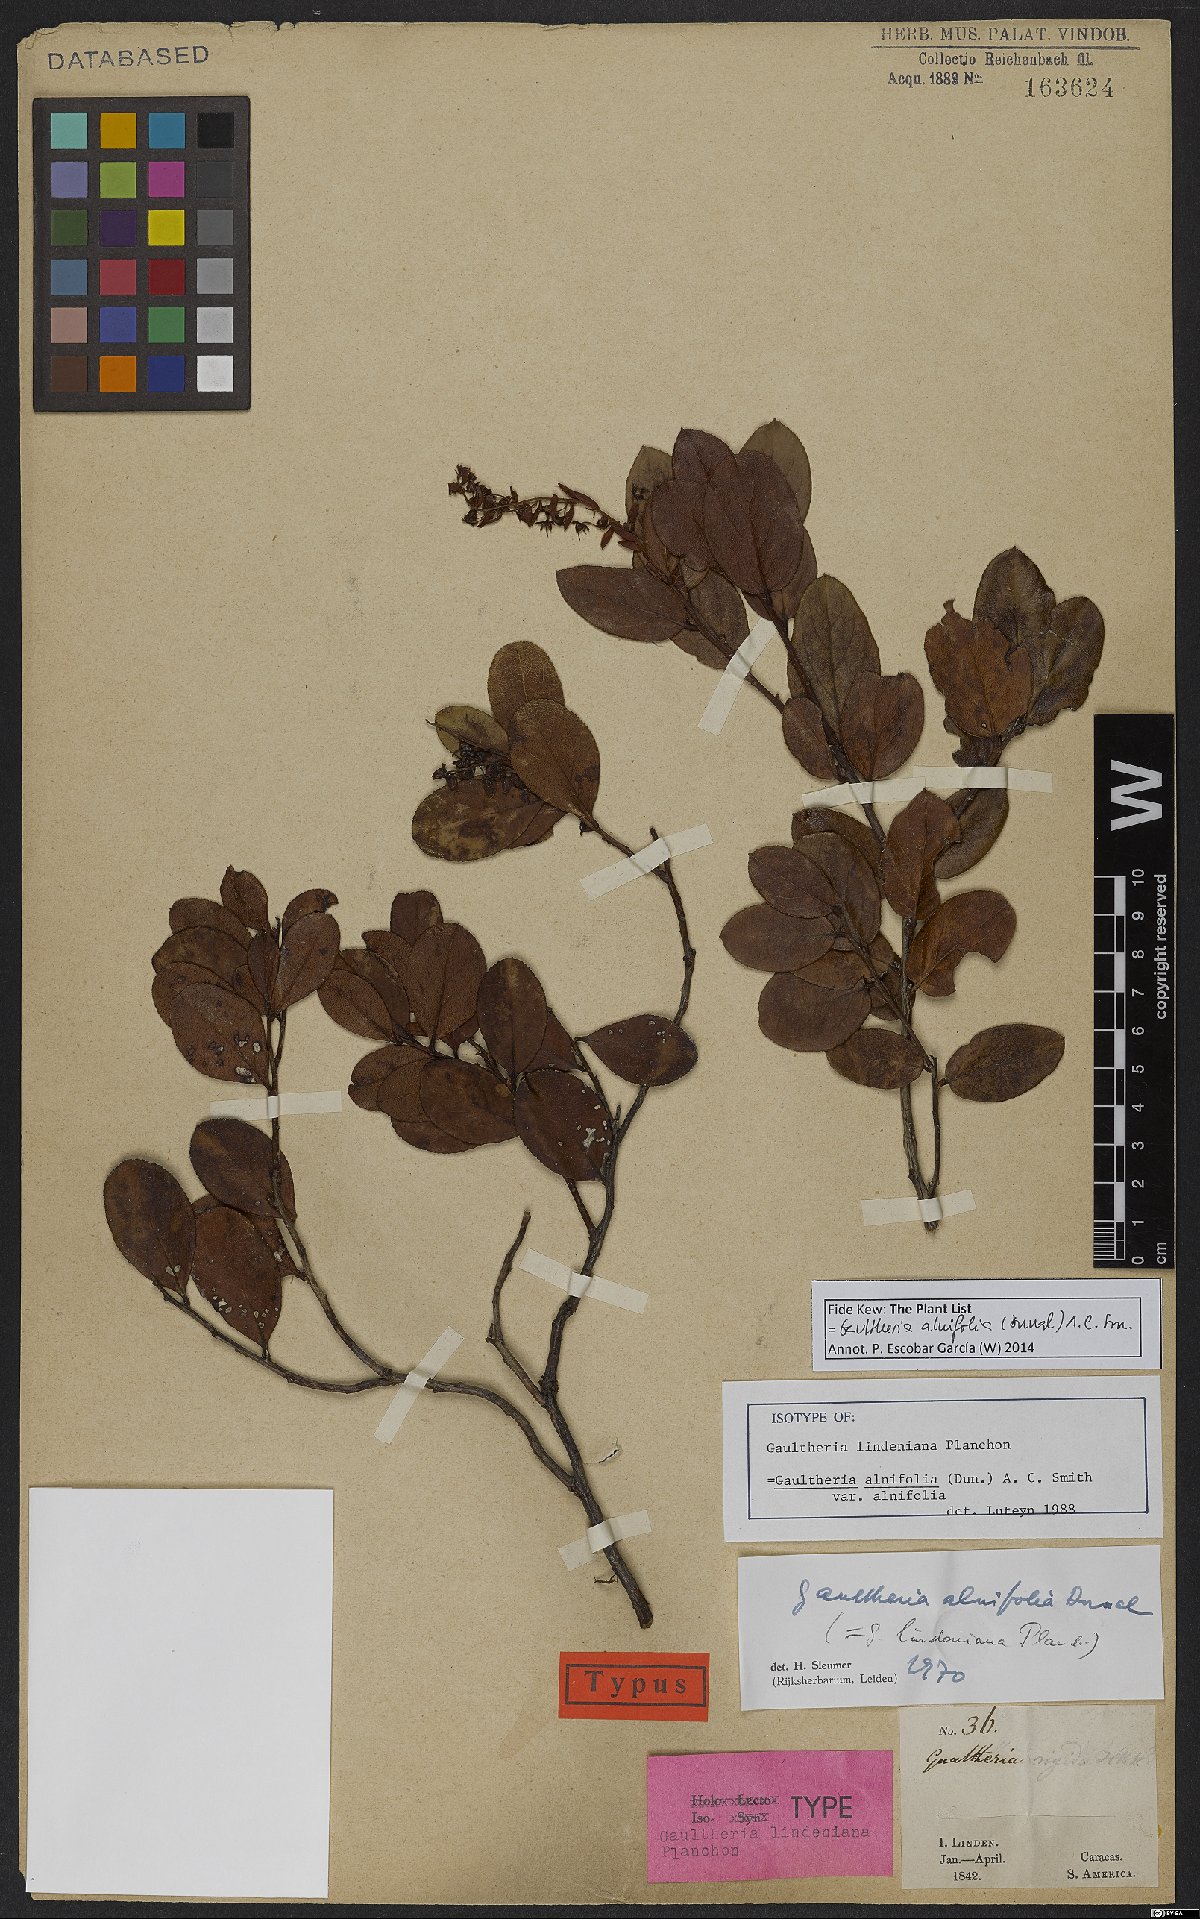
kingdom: Plantae
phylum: Tracheophyta
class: Magnoliopsida
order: Ericales
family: Ericaceae
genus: Gaultheria
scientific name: Gaultheria alnifolia
